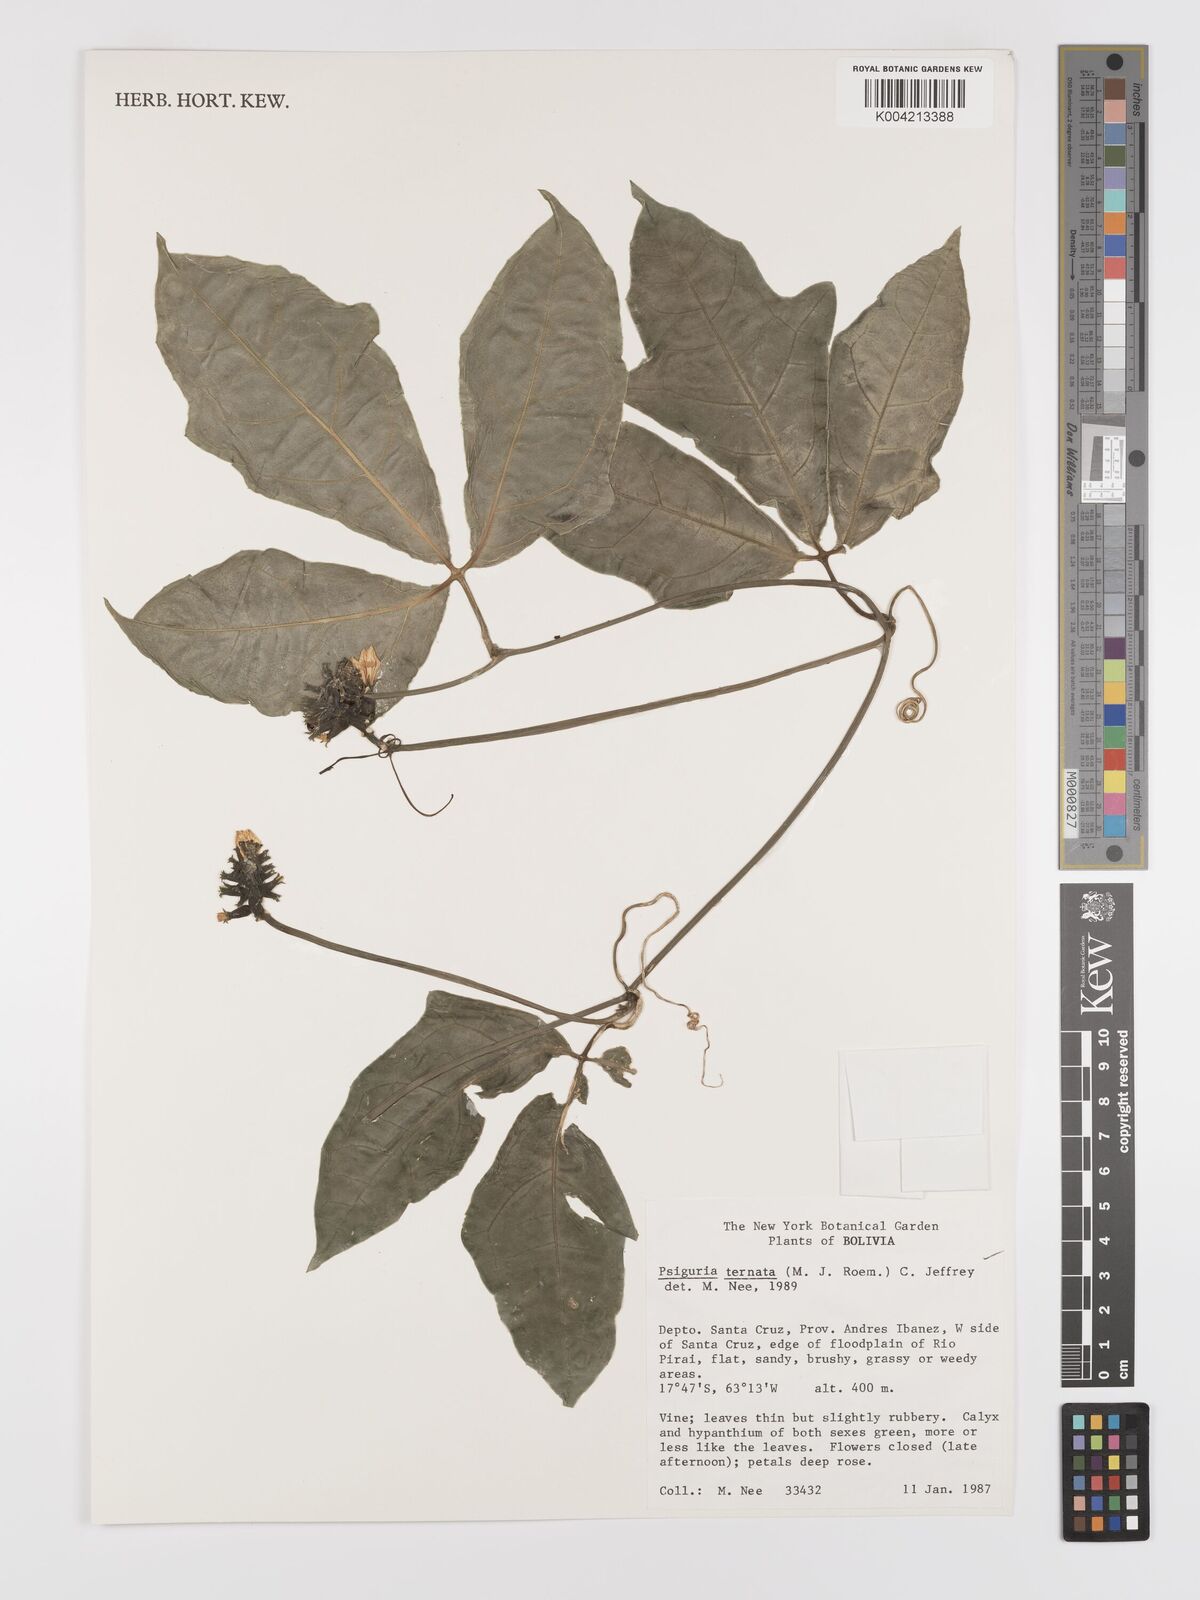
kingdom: Plantae
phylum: Tracheophyta
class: Magnoliopsida
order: Cucurbitales
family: Cucurbitaceae
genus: Psiguria
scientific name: Psiguria ternata
